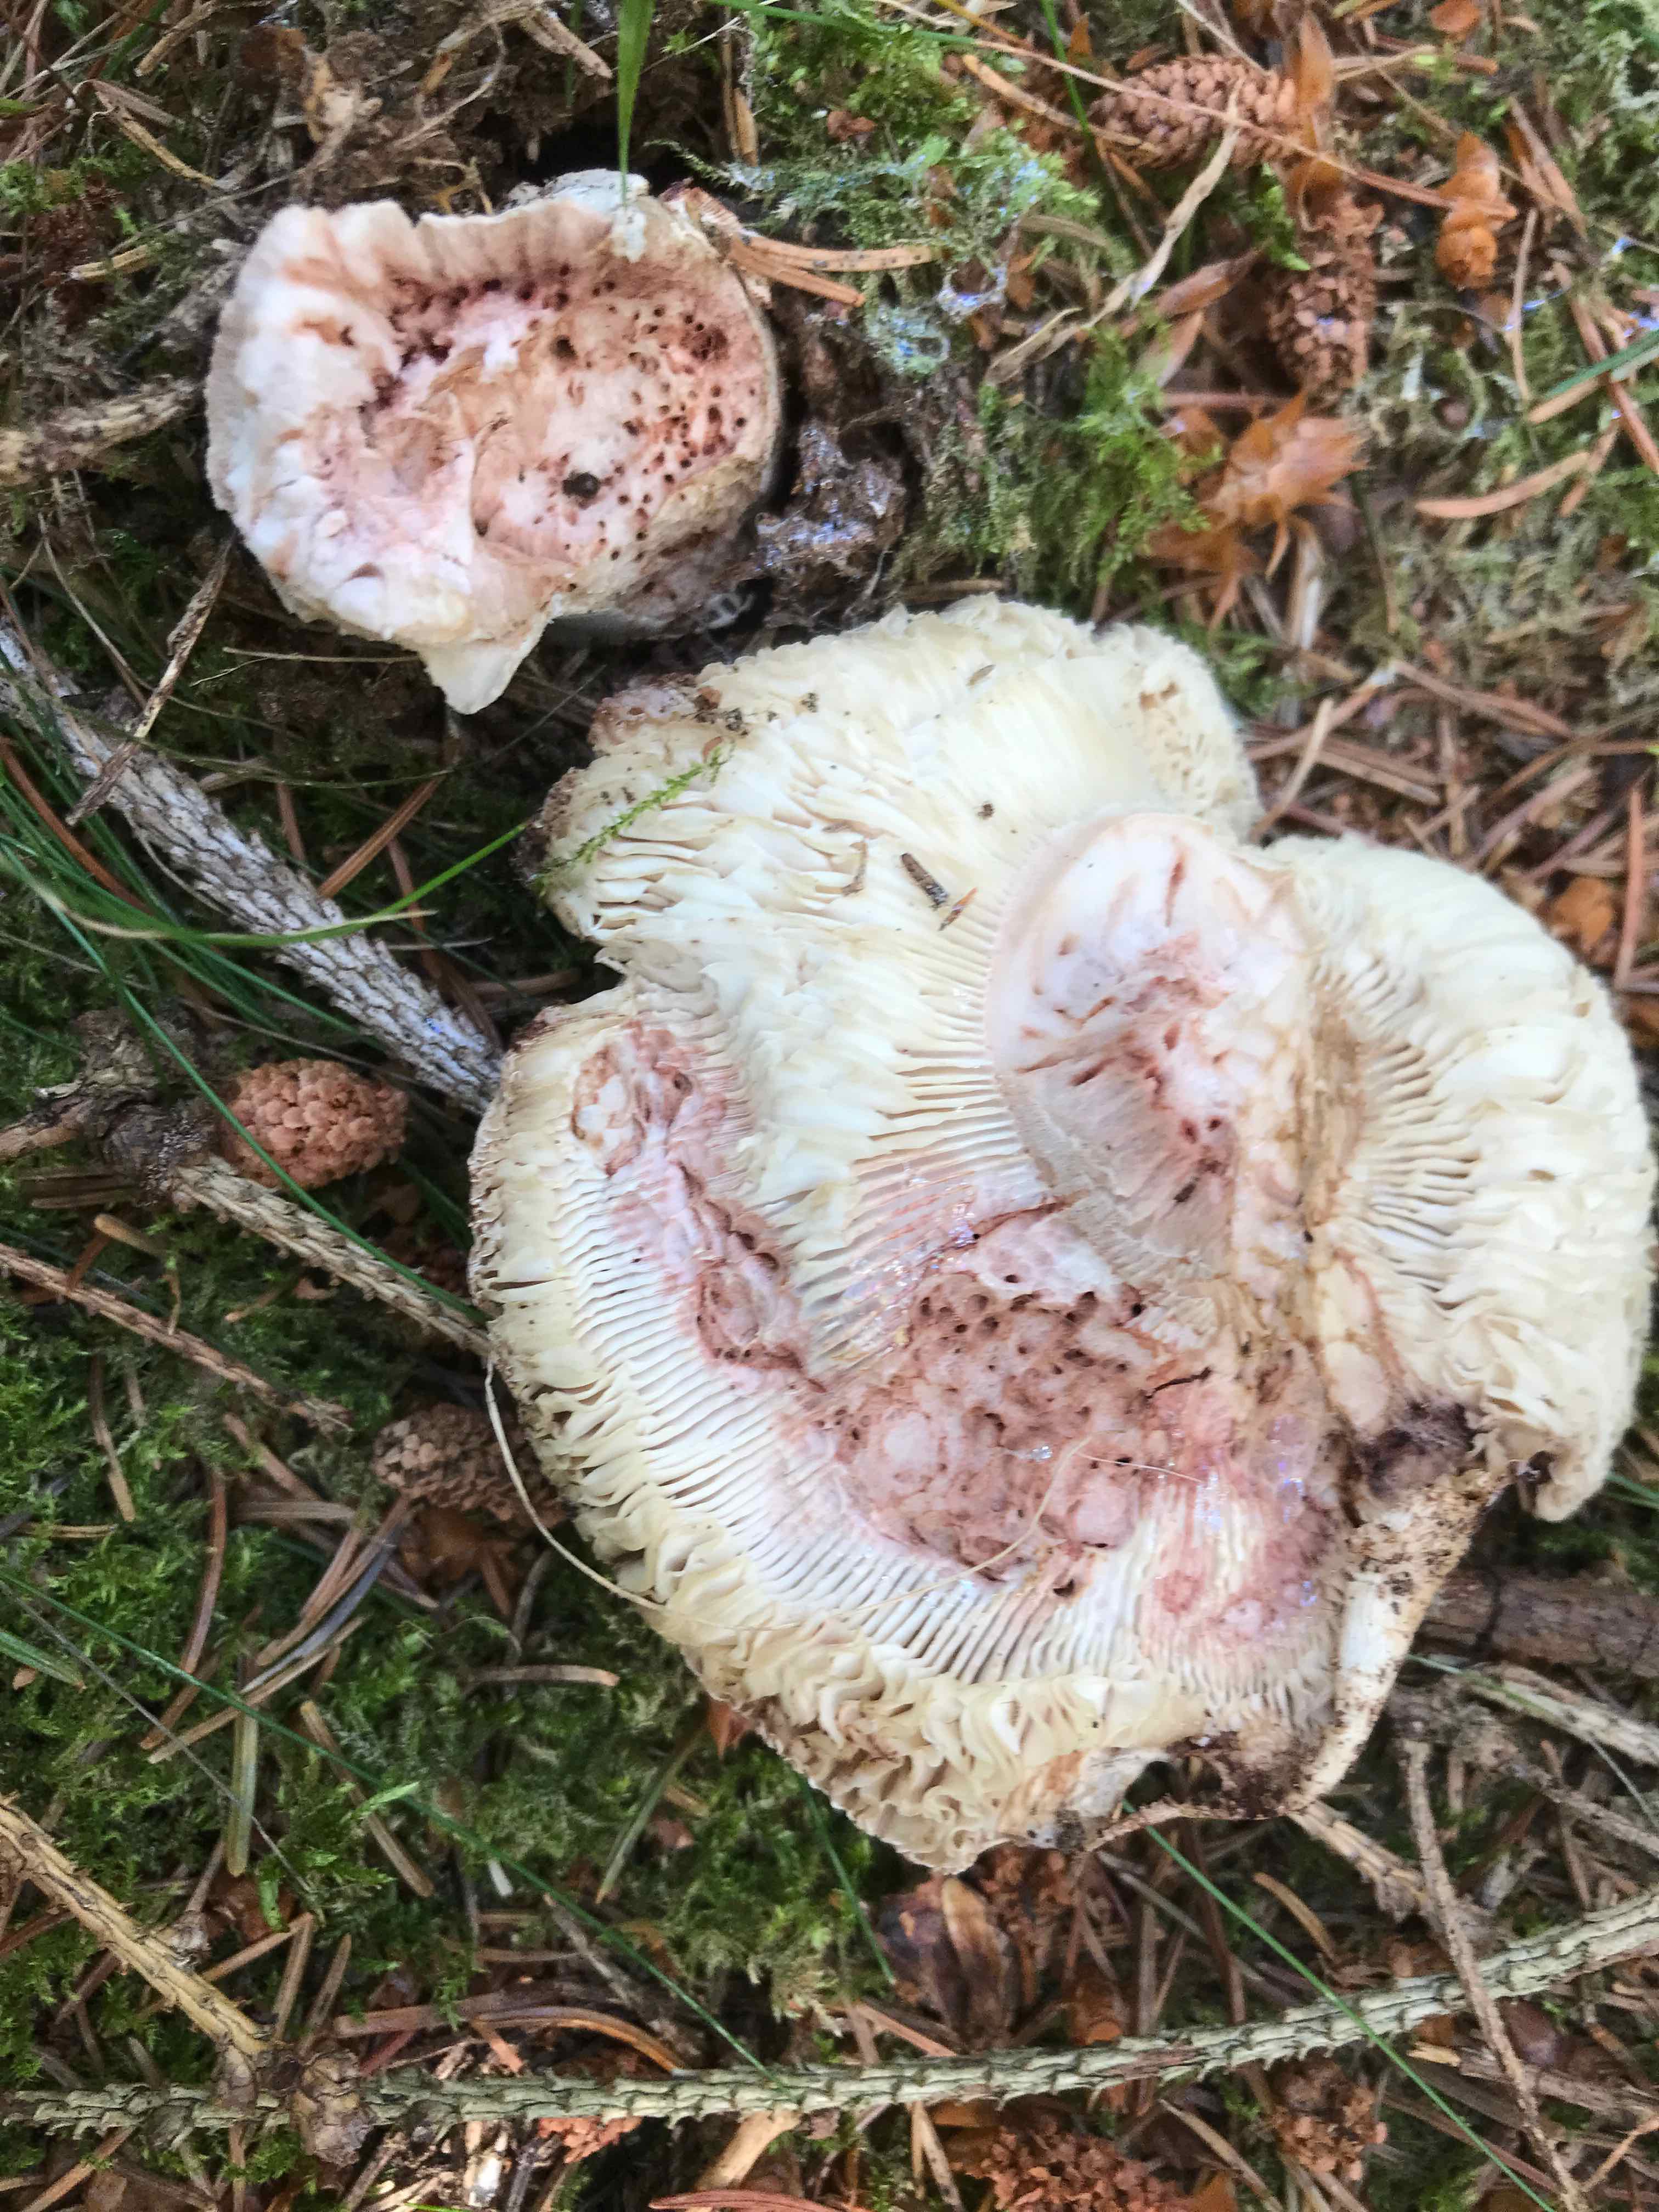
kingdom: Fungi
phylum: Basidiomycota
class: Agaricomycetes
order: Agaricales
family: Amanitaceae
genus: Amanita
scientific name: Amanita rubescens
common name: rødmende fluesvamp
